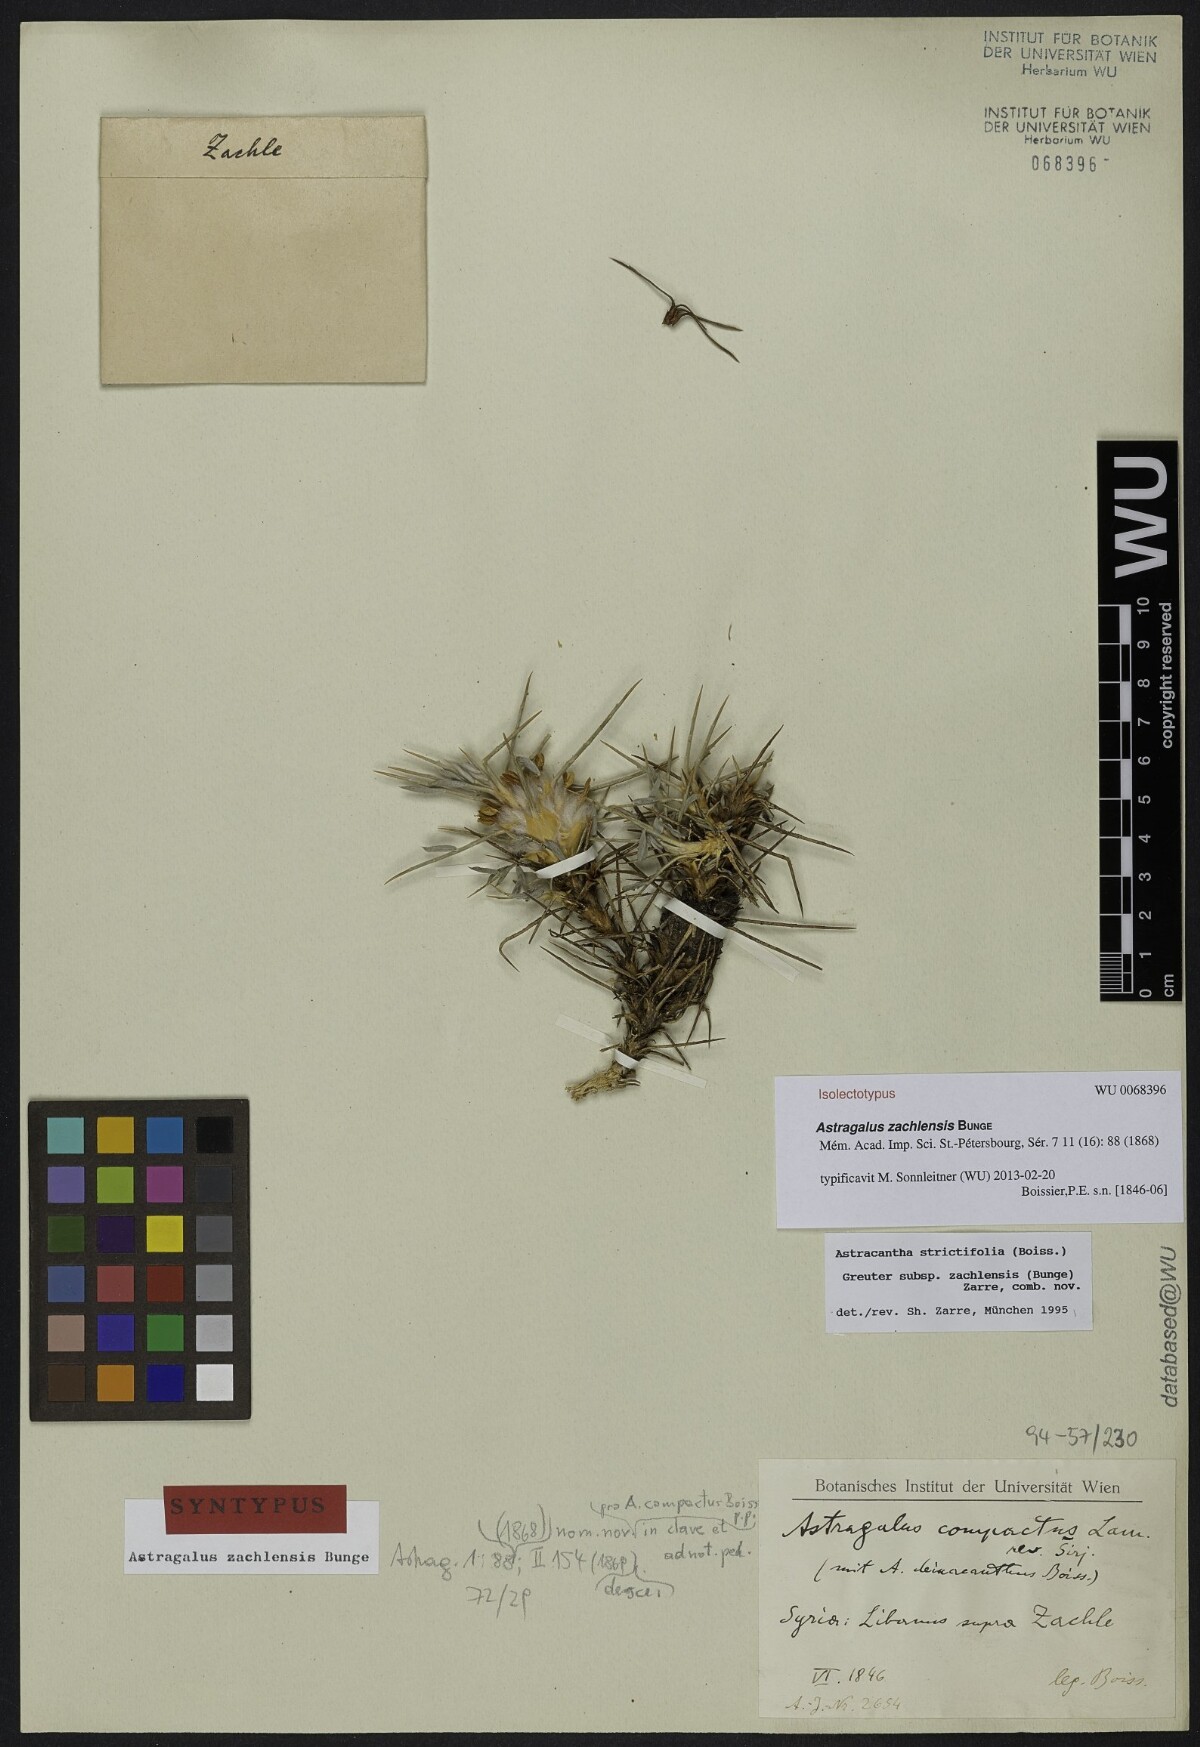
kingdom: Plantae
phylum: Tracheophyta
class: Magnoliopsida
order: Fabales
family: Fabaceae
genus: Astragalus
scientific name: Astragalus zachlensis
